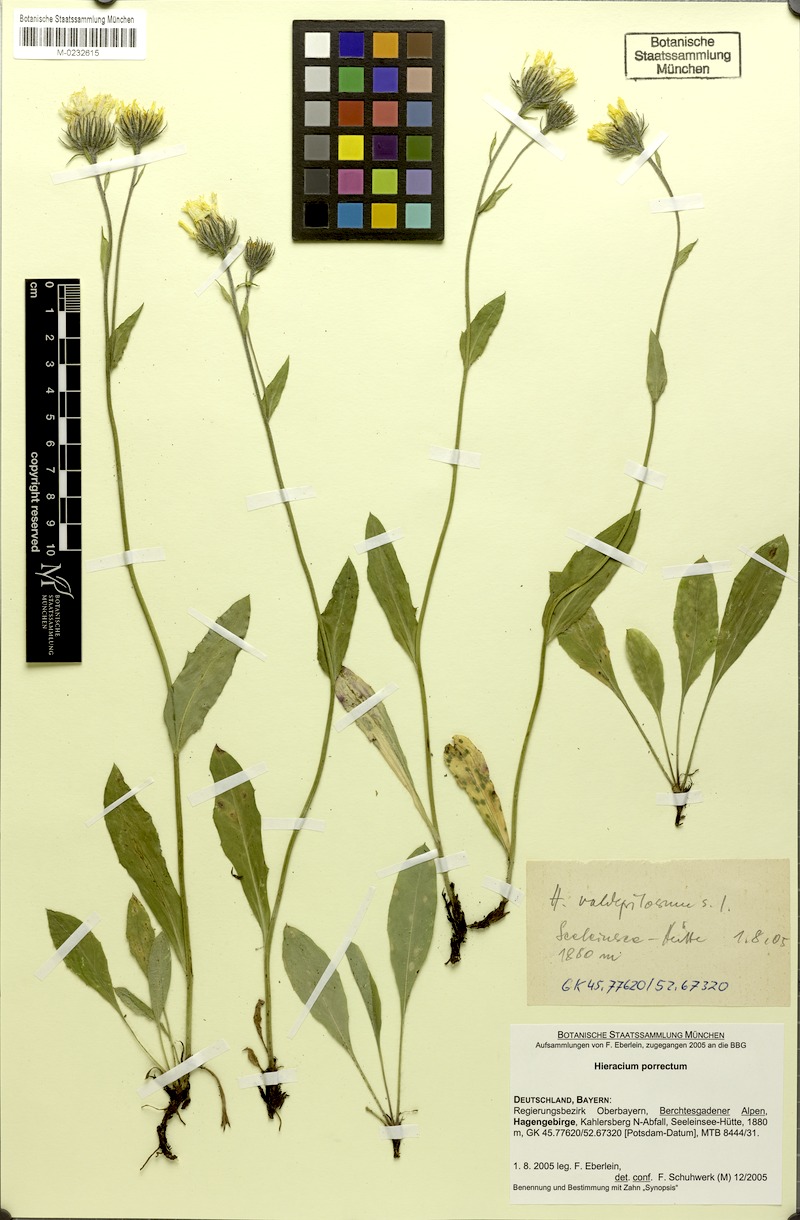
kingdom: Plantae
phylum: Tracheophyta
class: Magnoliopsida
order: Asterales
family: Asteraceae
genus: Hieracium
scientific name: Hieracium porrectum
